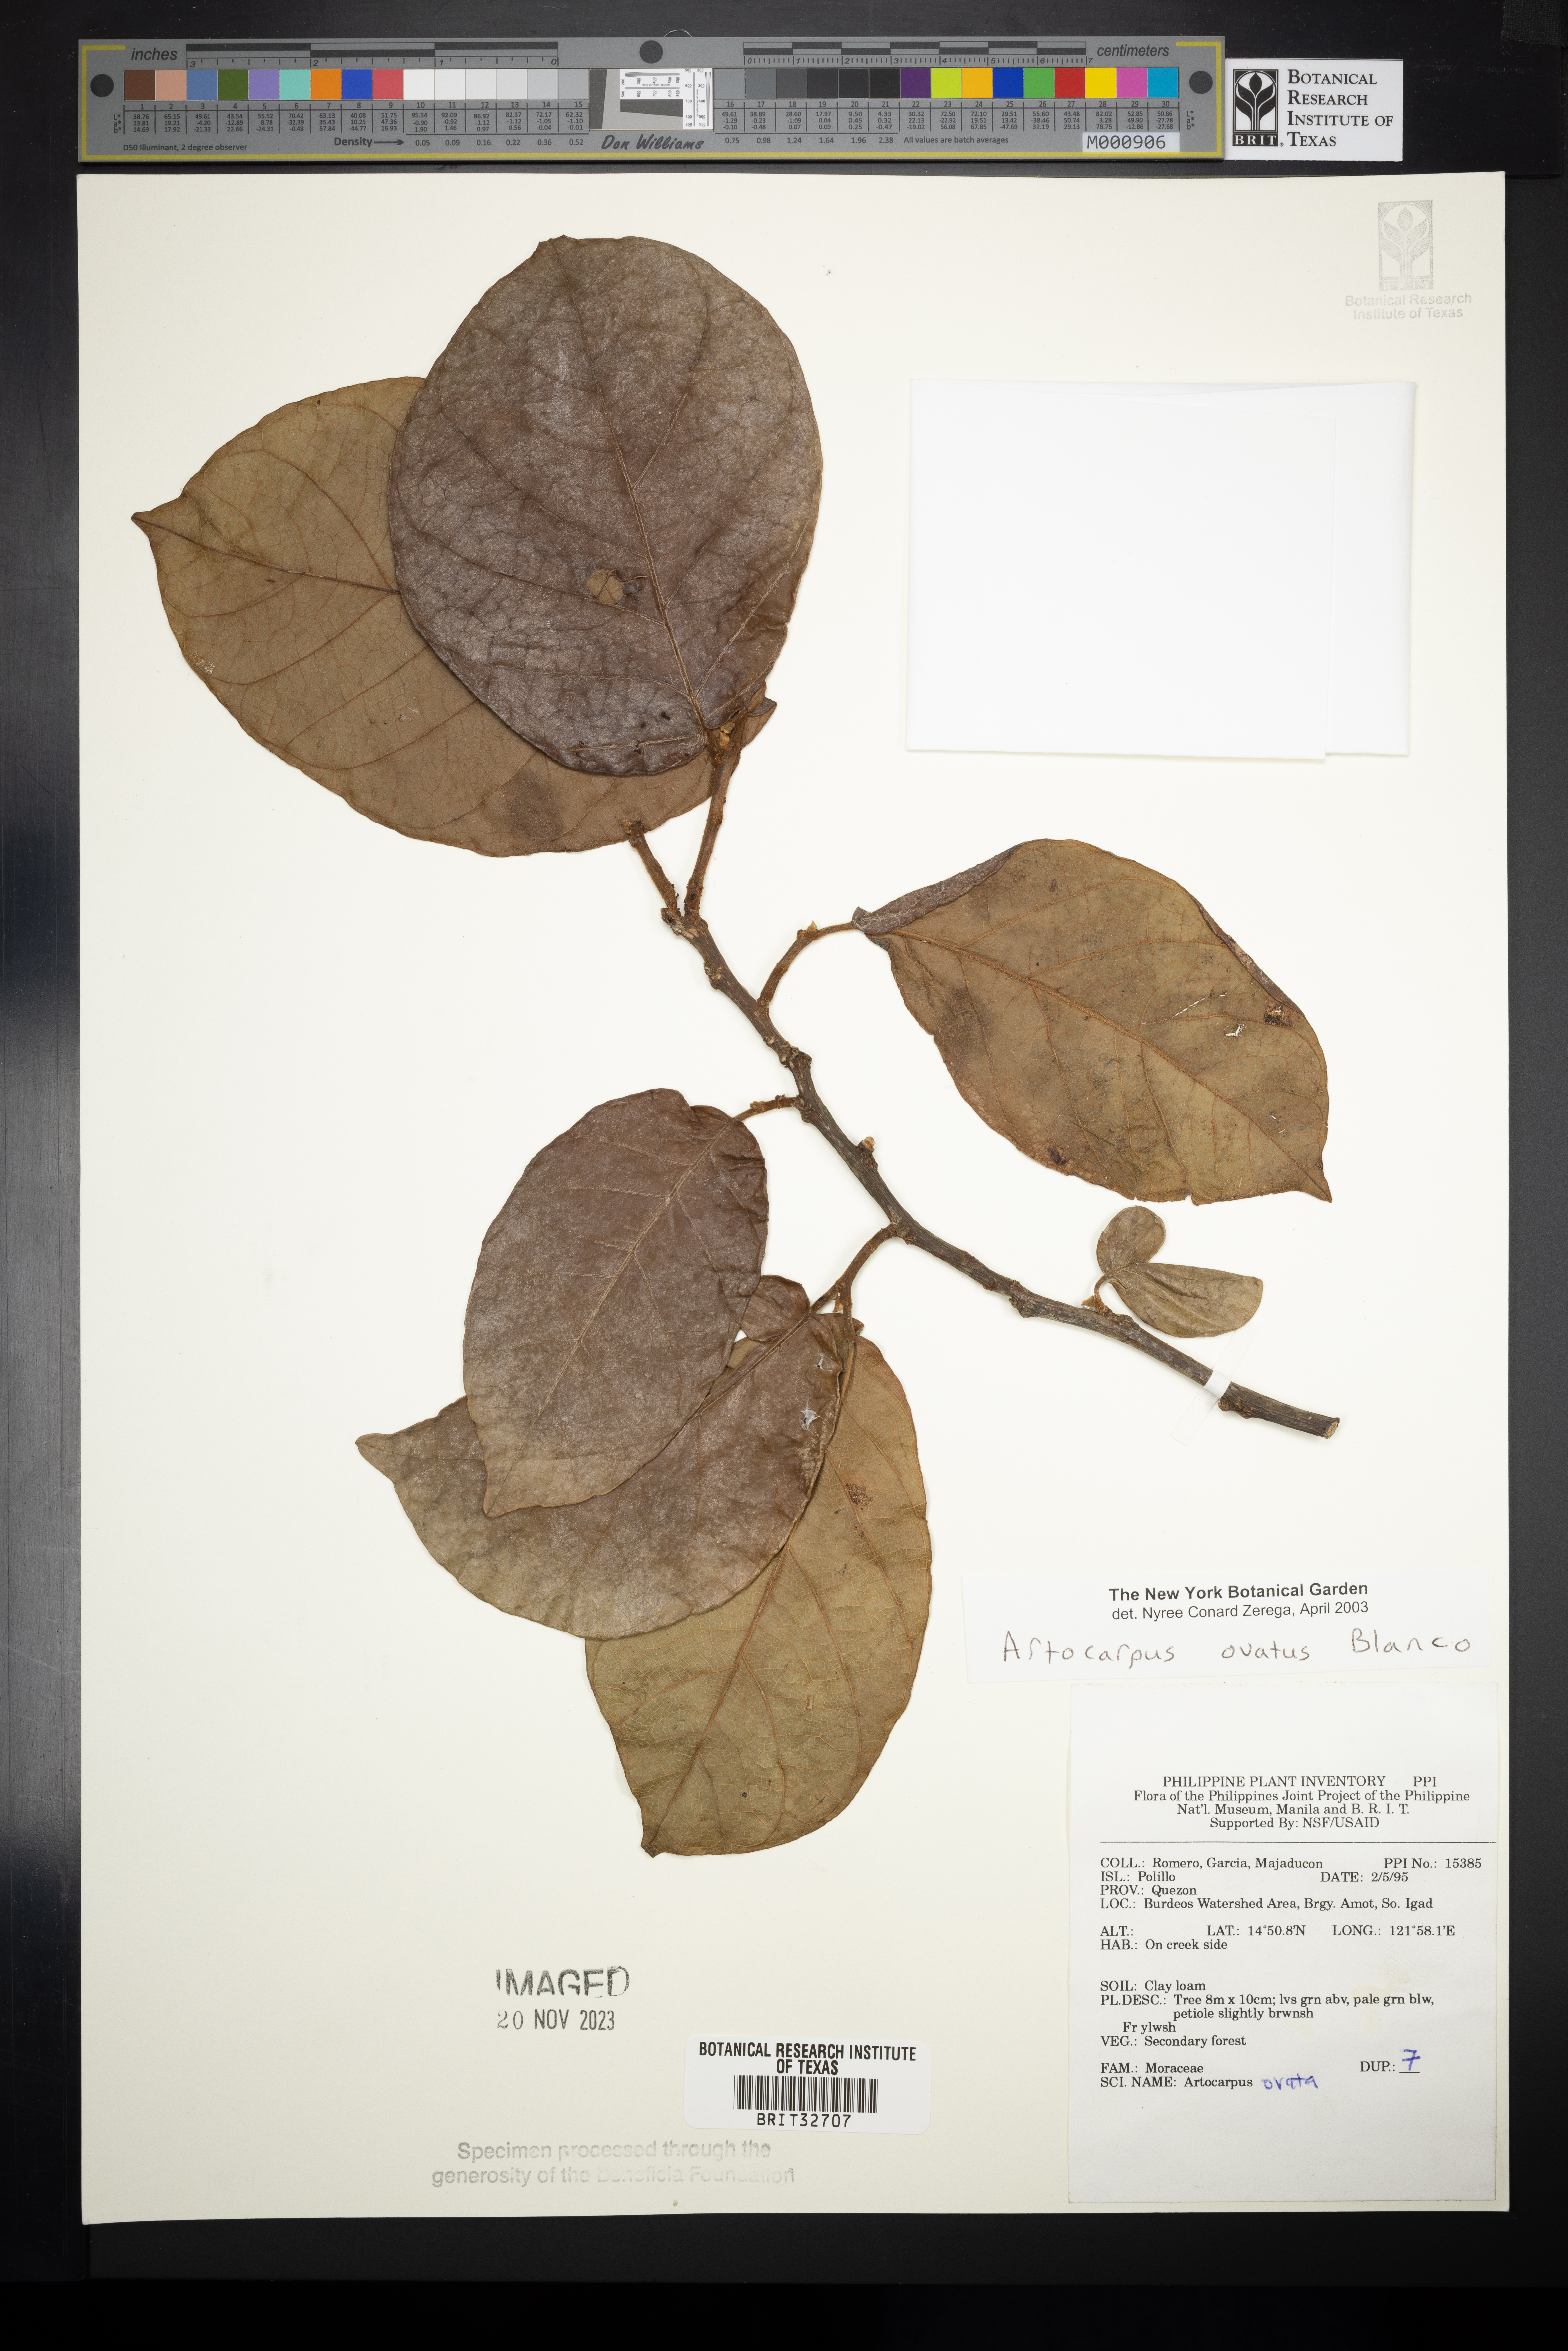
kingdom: Plantae
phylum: Tracheophyta
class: Magnoliopsida
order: Rosales
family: Moraceae
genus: Artocarpus
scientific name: Artocarpus lacucha
